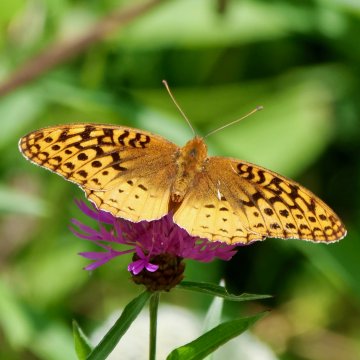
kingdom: Animalia
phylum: Arthropoda
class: Insecta
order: Lepidoptera
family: Nymphalidae
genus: Speyeria
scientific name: Speyeria cybele
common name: Great Spangled Fritillary
